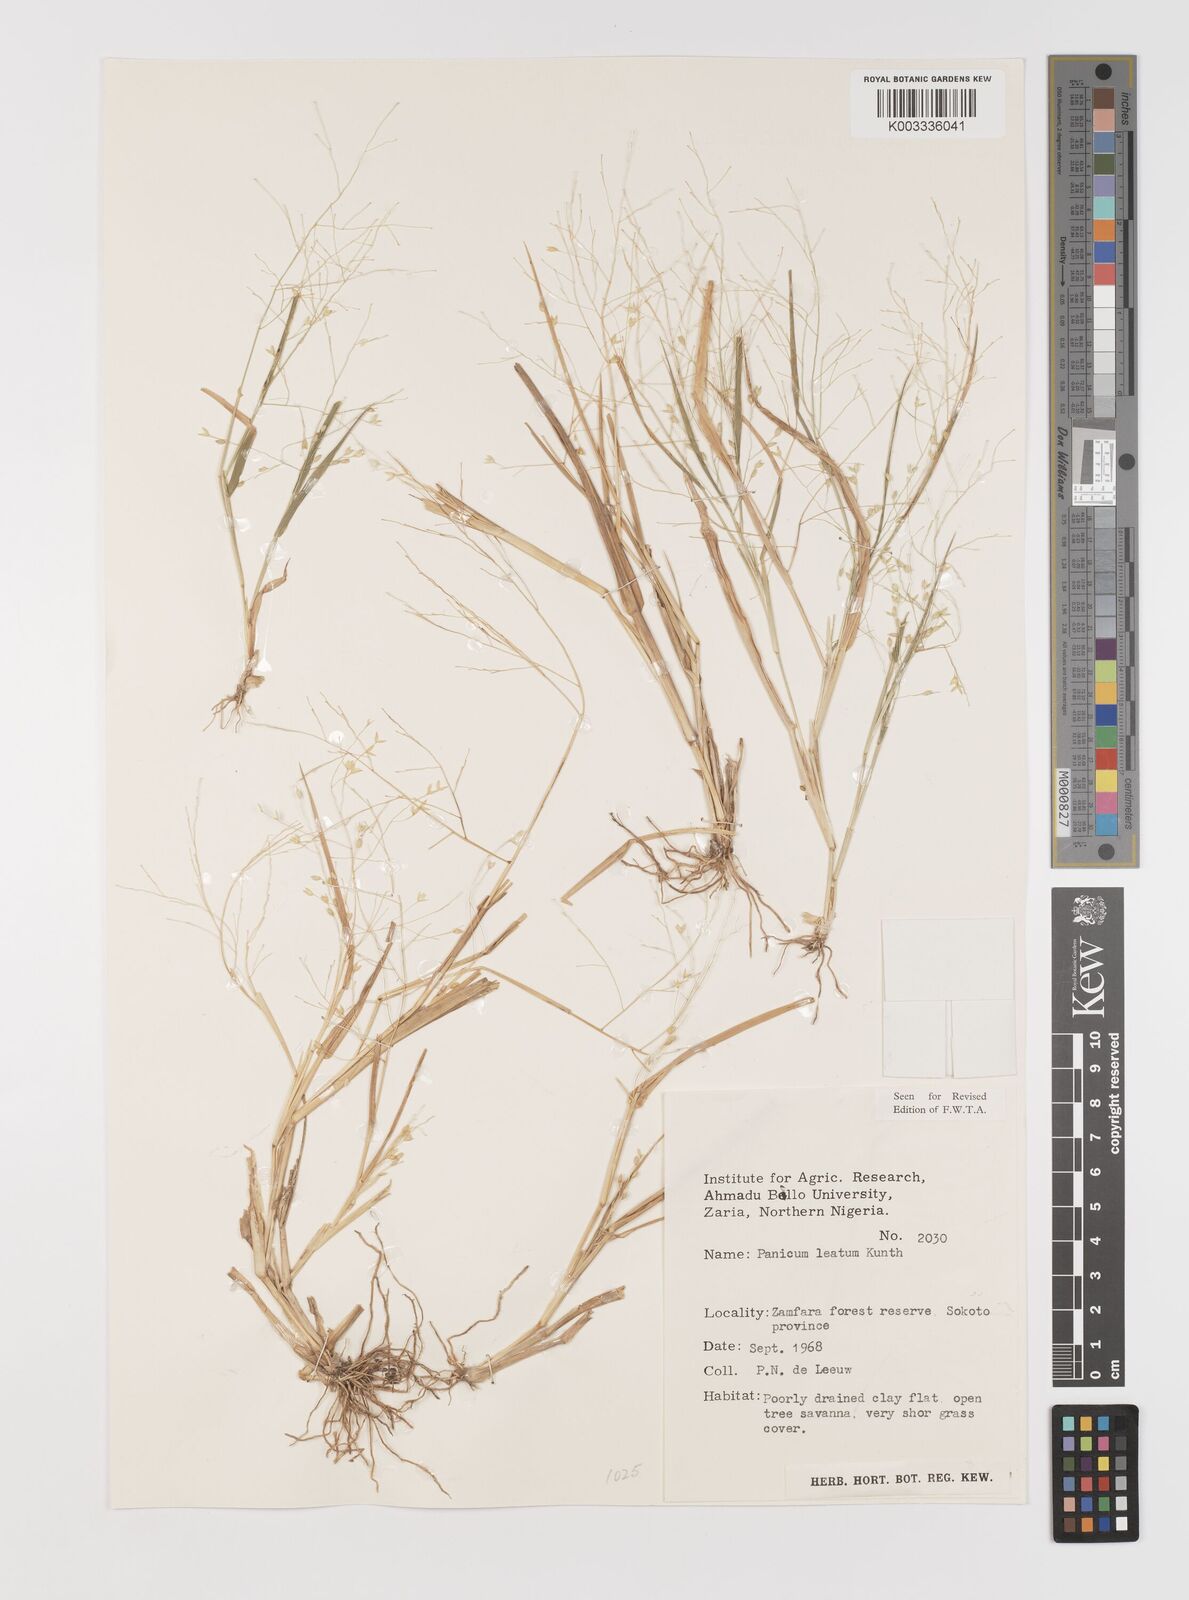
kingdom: Plantae
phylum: Tracheophyta
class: Liliopsida
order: Poales
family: Poaceae
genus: Panicum
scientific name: Panicum laetum
